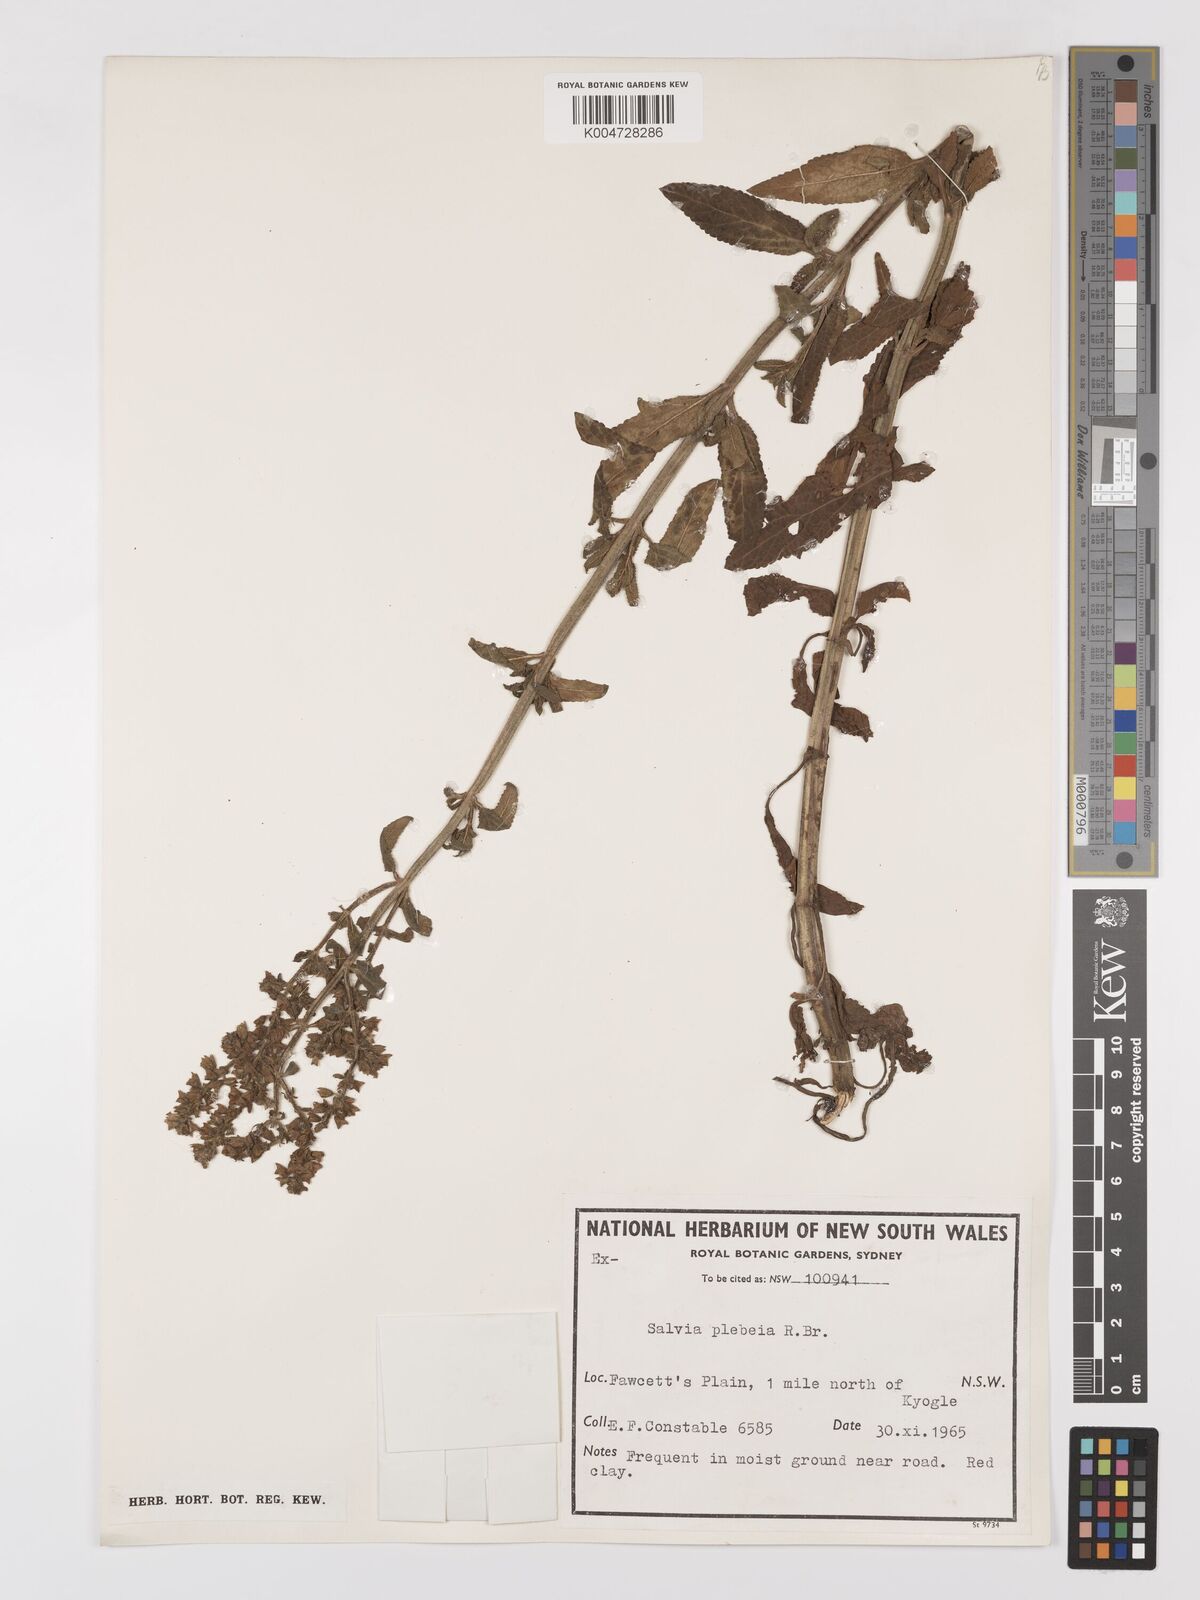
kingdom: Plantae
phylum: Tracheophyta
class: Magnoliopsida
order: Lamiales
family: Lamiaceae
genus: Salvia
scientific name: Salvia plebeia
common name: Australian sage
